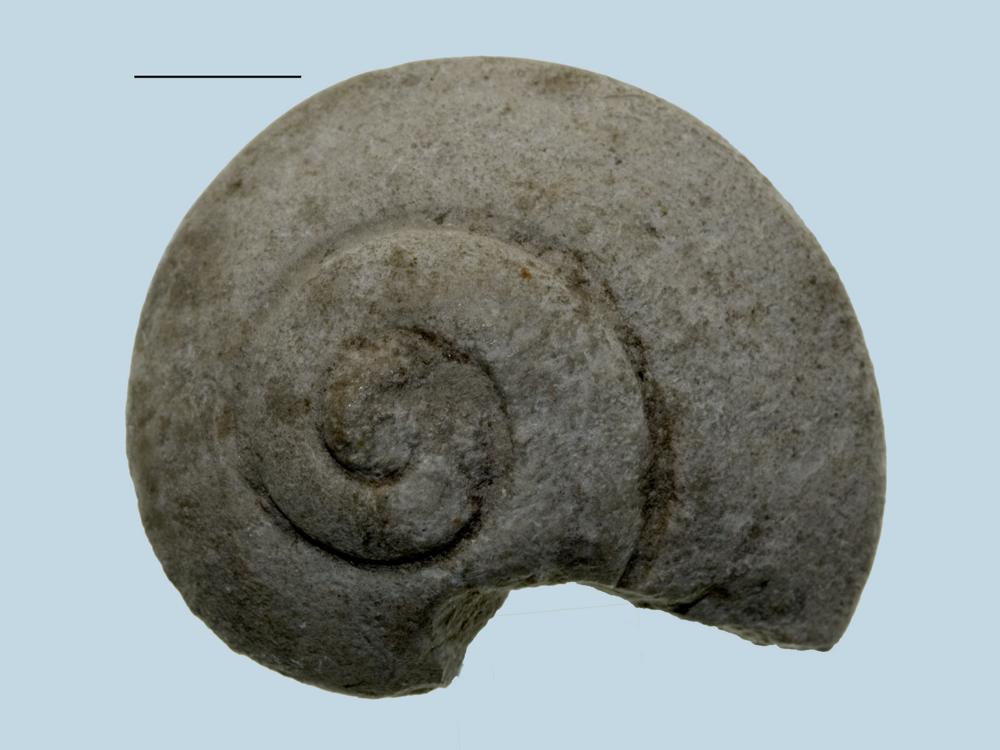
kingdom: Animalia
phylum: Mollusca
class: Gastropoda
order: Pleurotomariida
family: Pleurotomariidae
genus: Pleurotomaria
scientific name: Pleurotomaria
